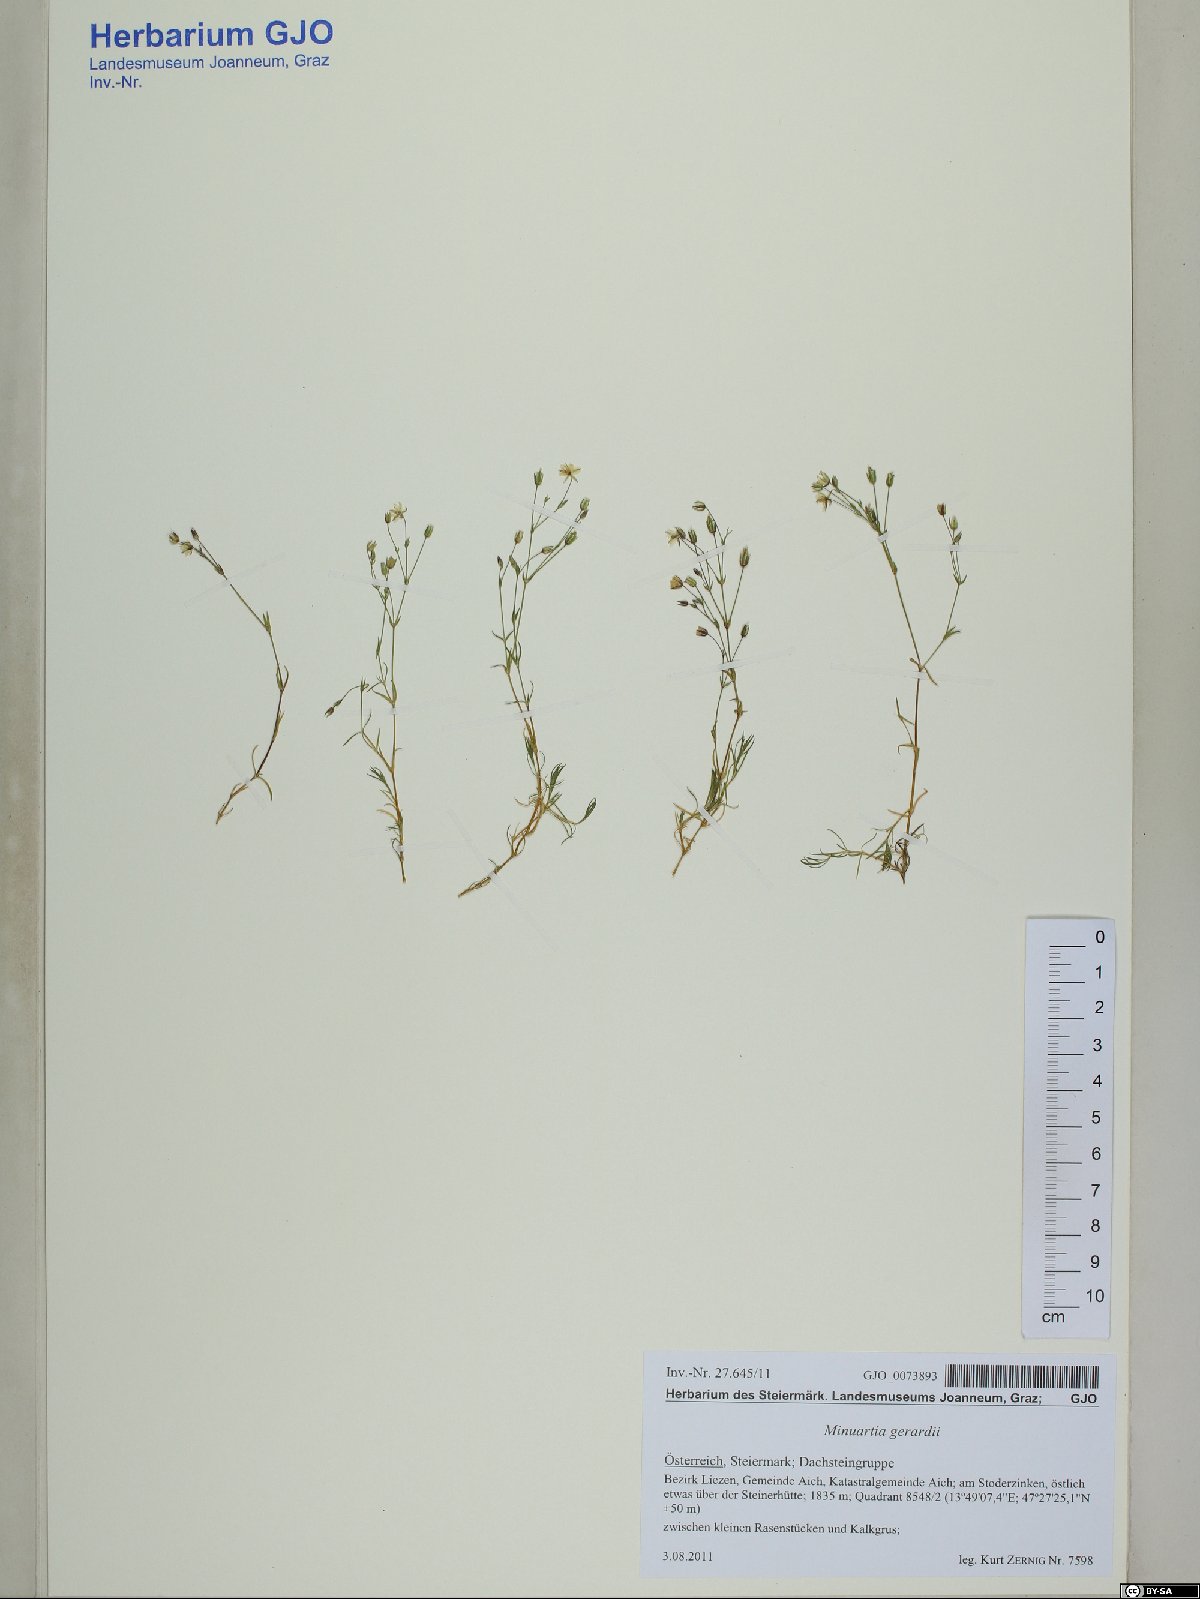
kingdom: Plantae
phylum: Tracheophyta
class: Magnoliopsida
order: Caryophyllales
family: Caryophyllaceae
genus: Sabulina
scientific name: Sabulina verna
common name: Spring sandwort
